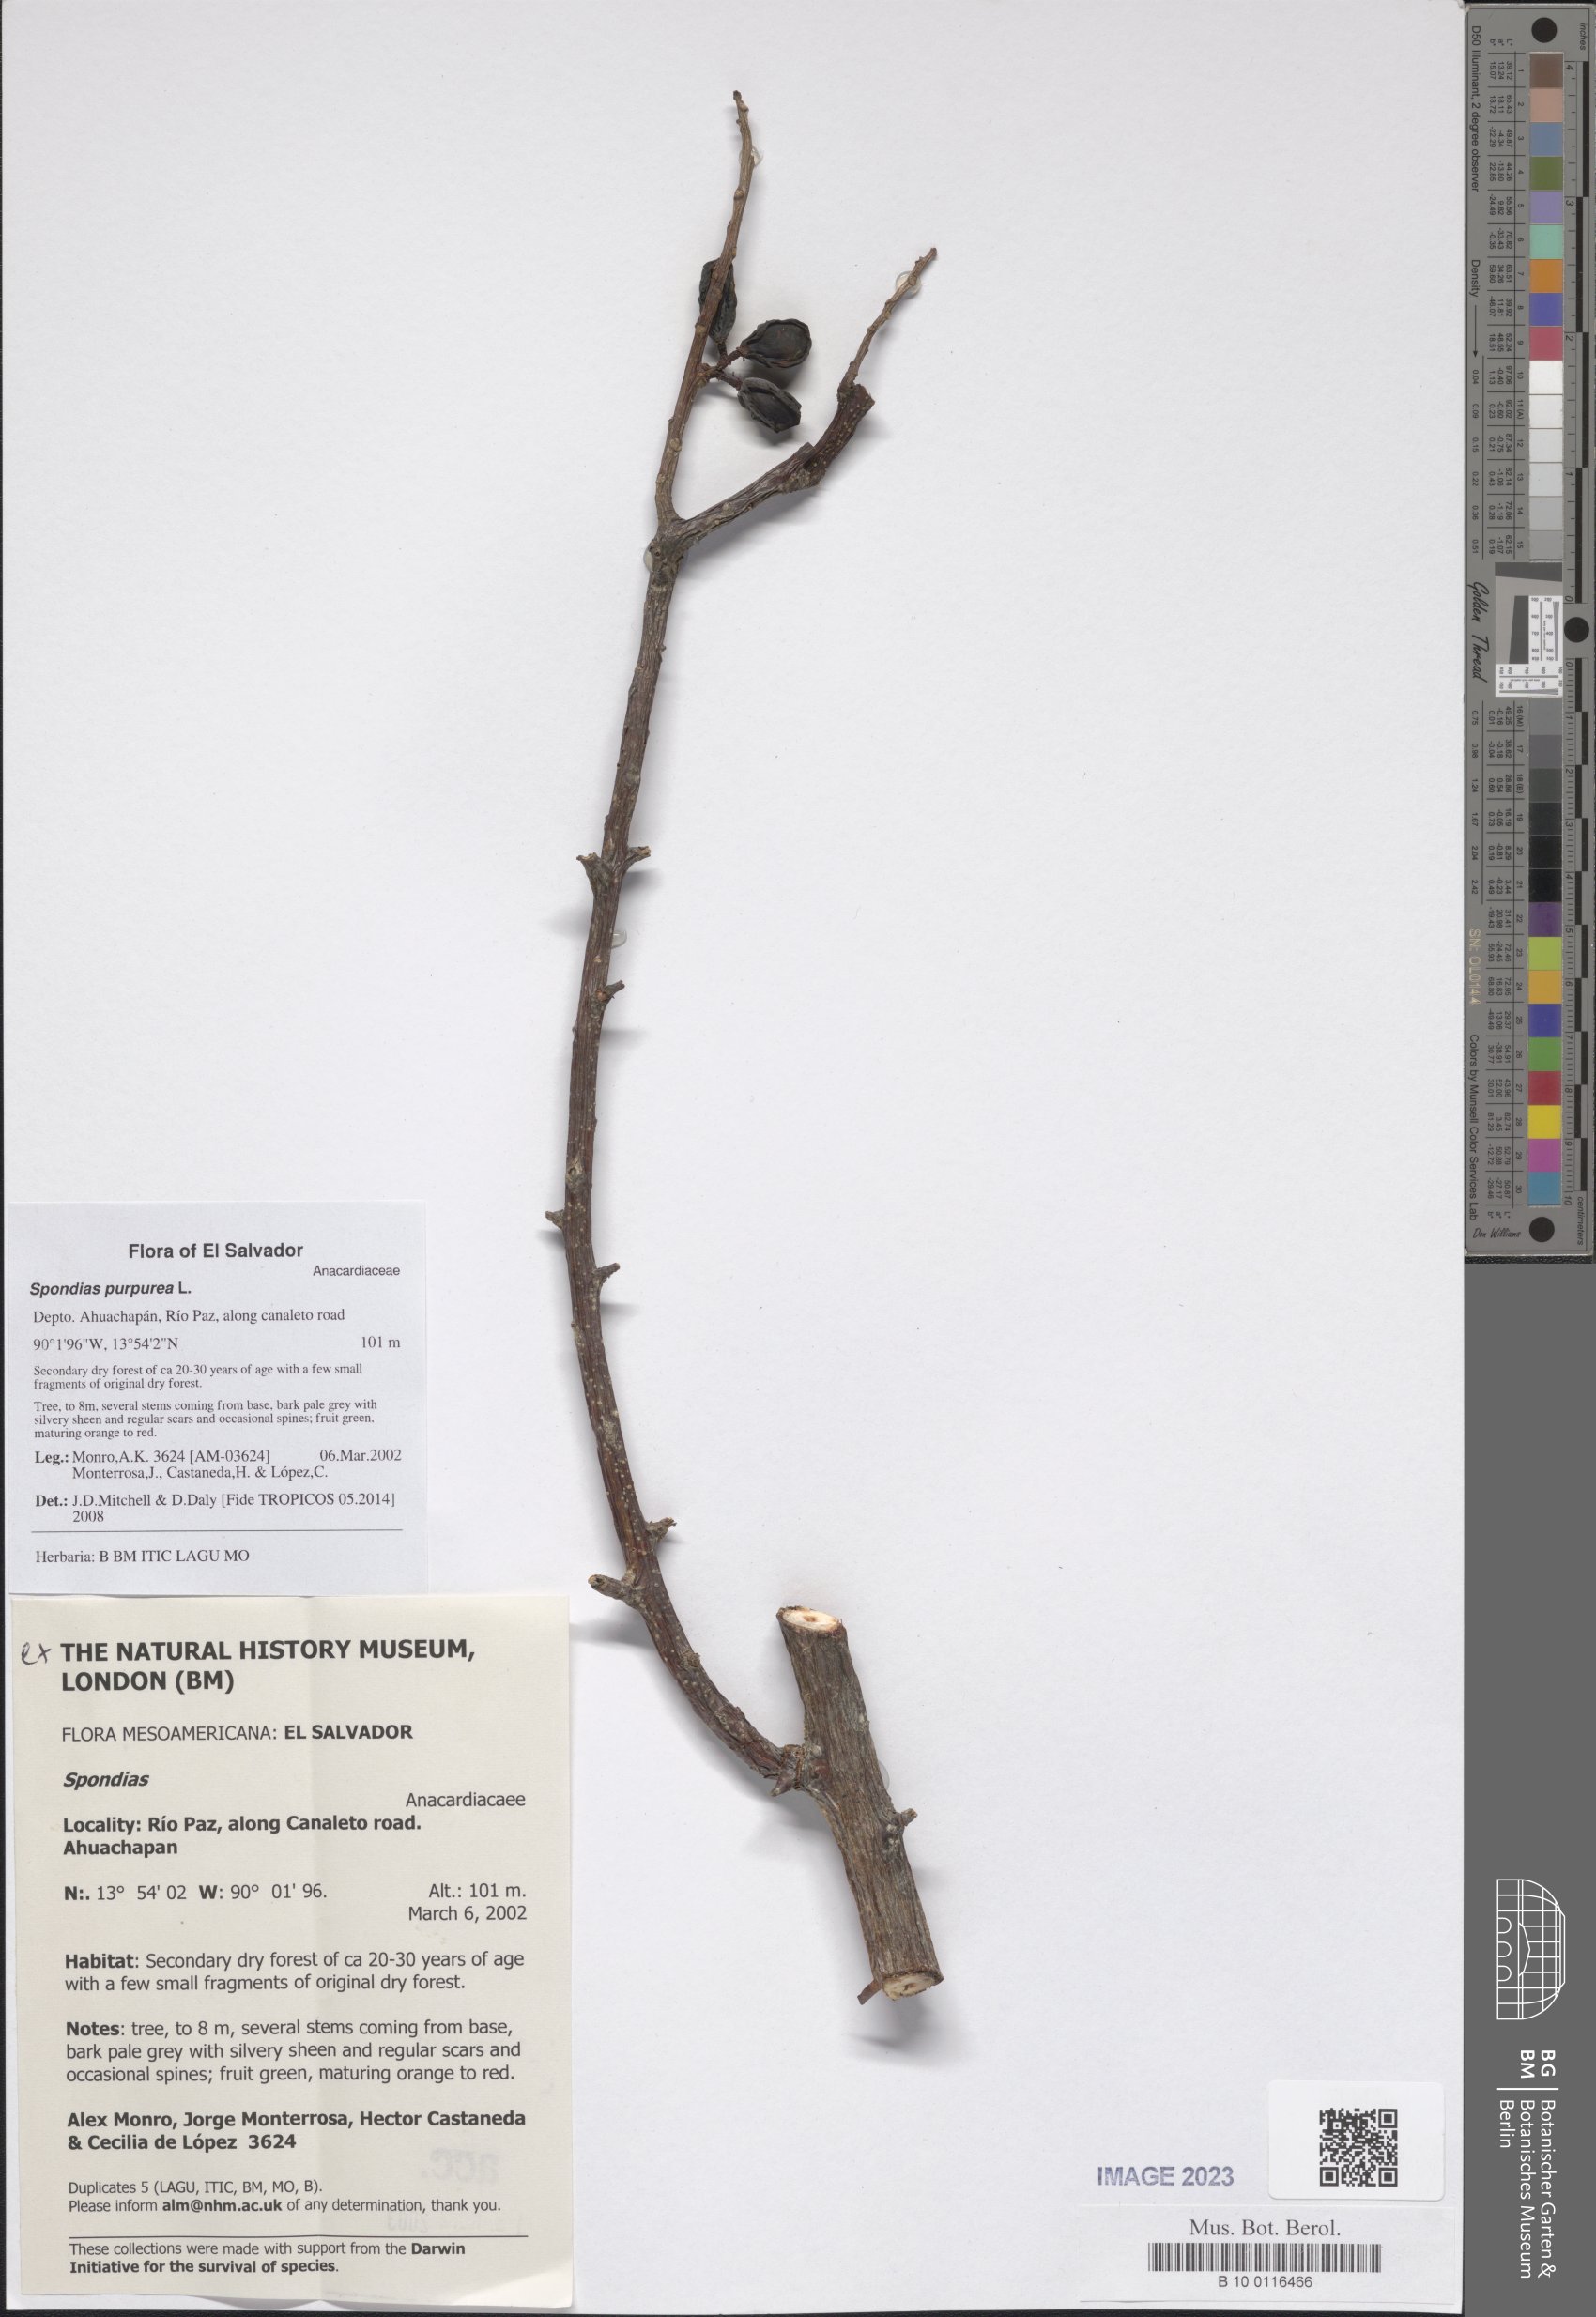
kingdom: Plantae
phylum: Tracheophyta
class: Magnoliopsida
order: Sapindales
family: Anacardiaceae
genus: Spondias
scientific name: Spondias purpurea
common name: Purple mombin
